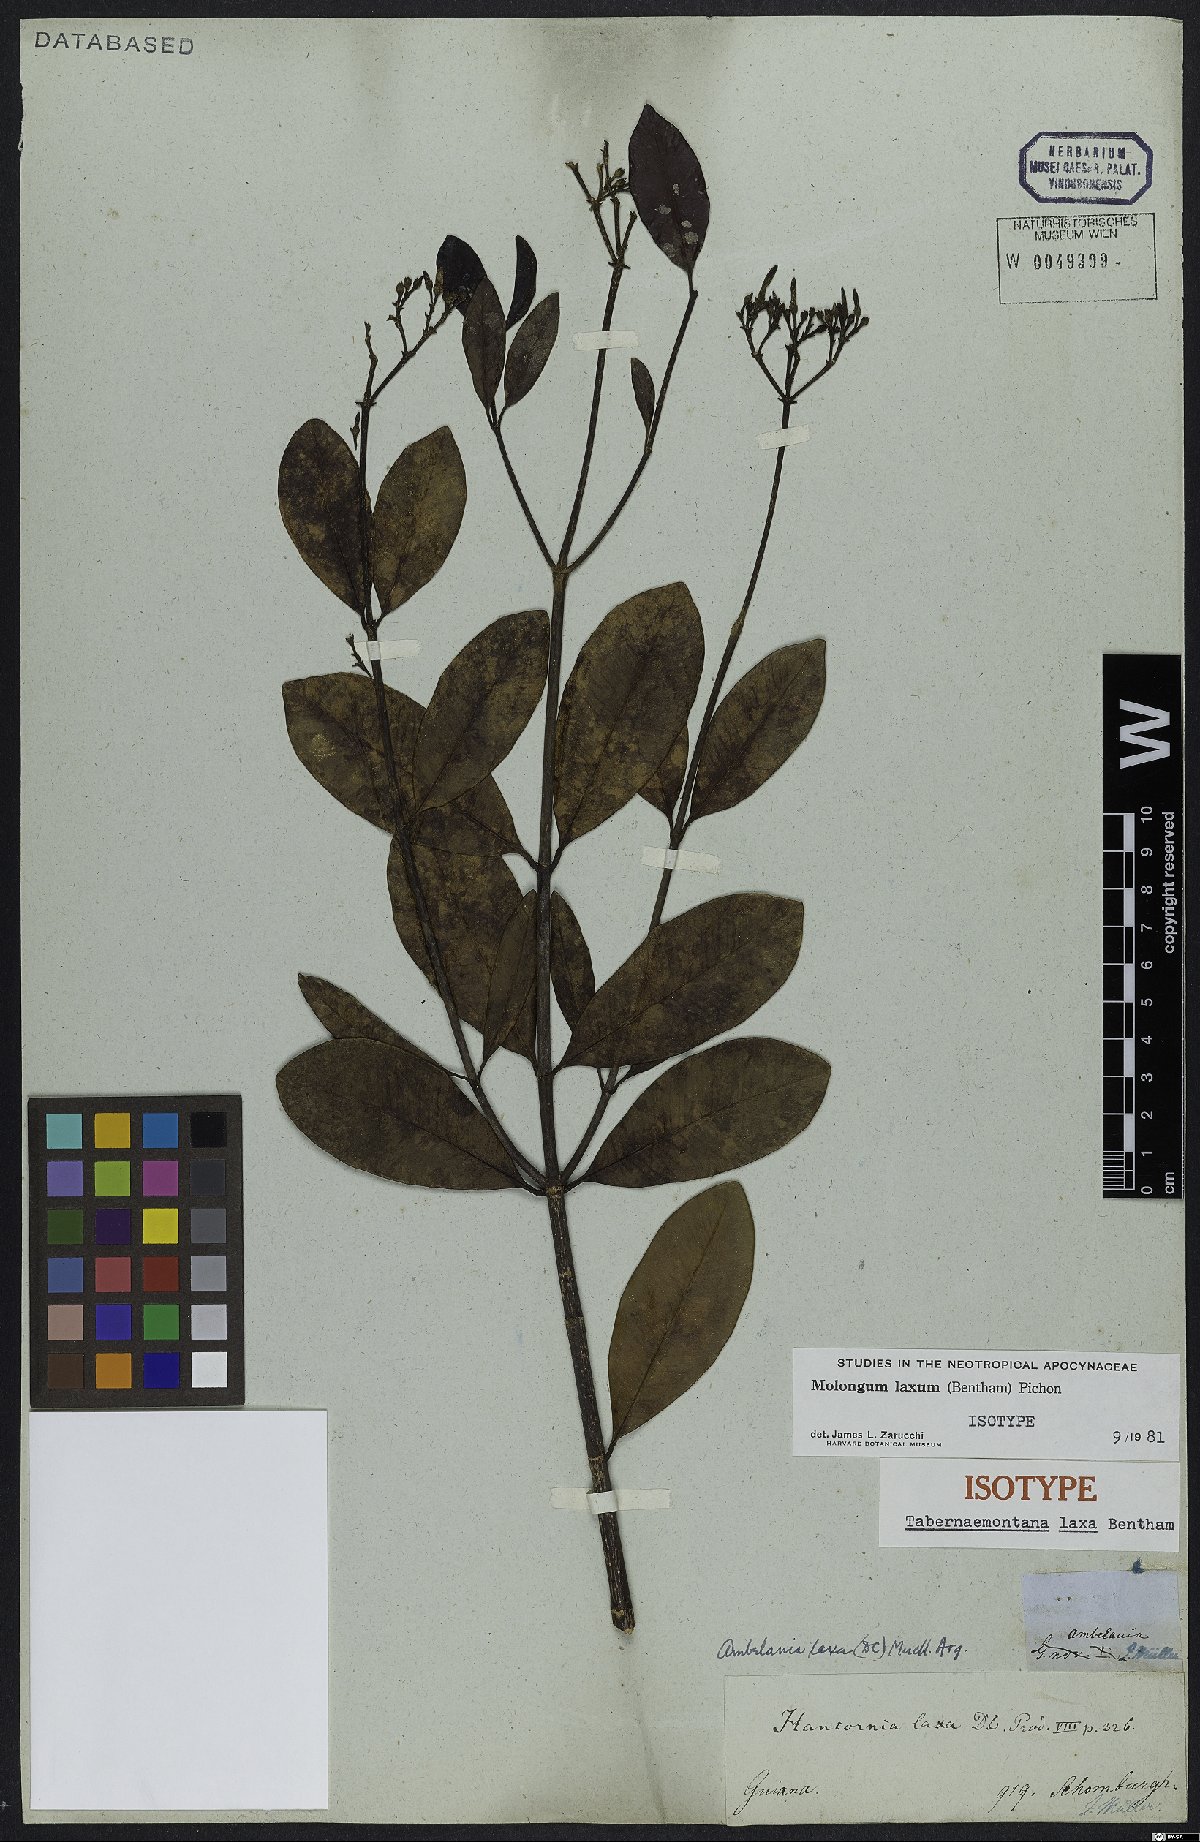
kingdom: Plantae
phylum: Tracheophyta
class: Magnoliopsida
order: Gentianales
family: Apocynaceae
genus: Molongum
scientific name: Molongum laxum
